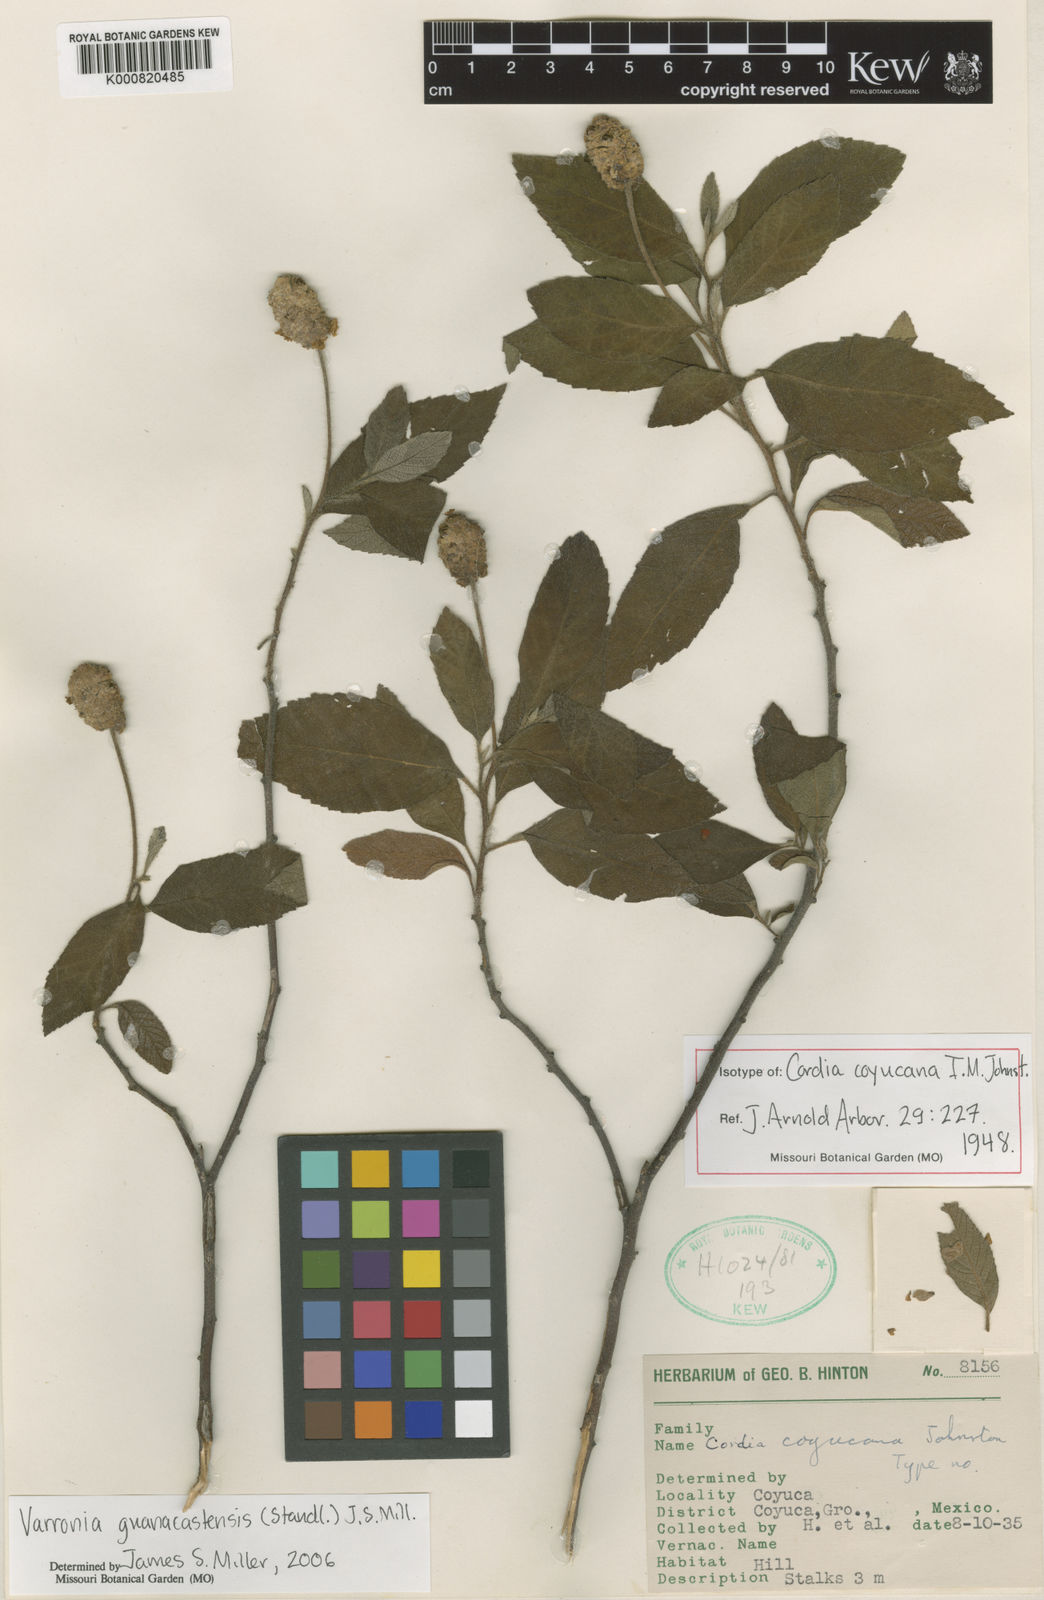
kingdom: Plantae
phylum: Tracheophyta
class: Magnoliopsida
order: Boraginales
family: Cordiaceae
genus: Varronia
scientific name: Varronia guanacastensis
